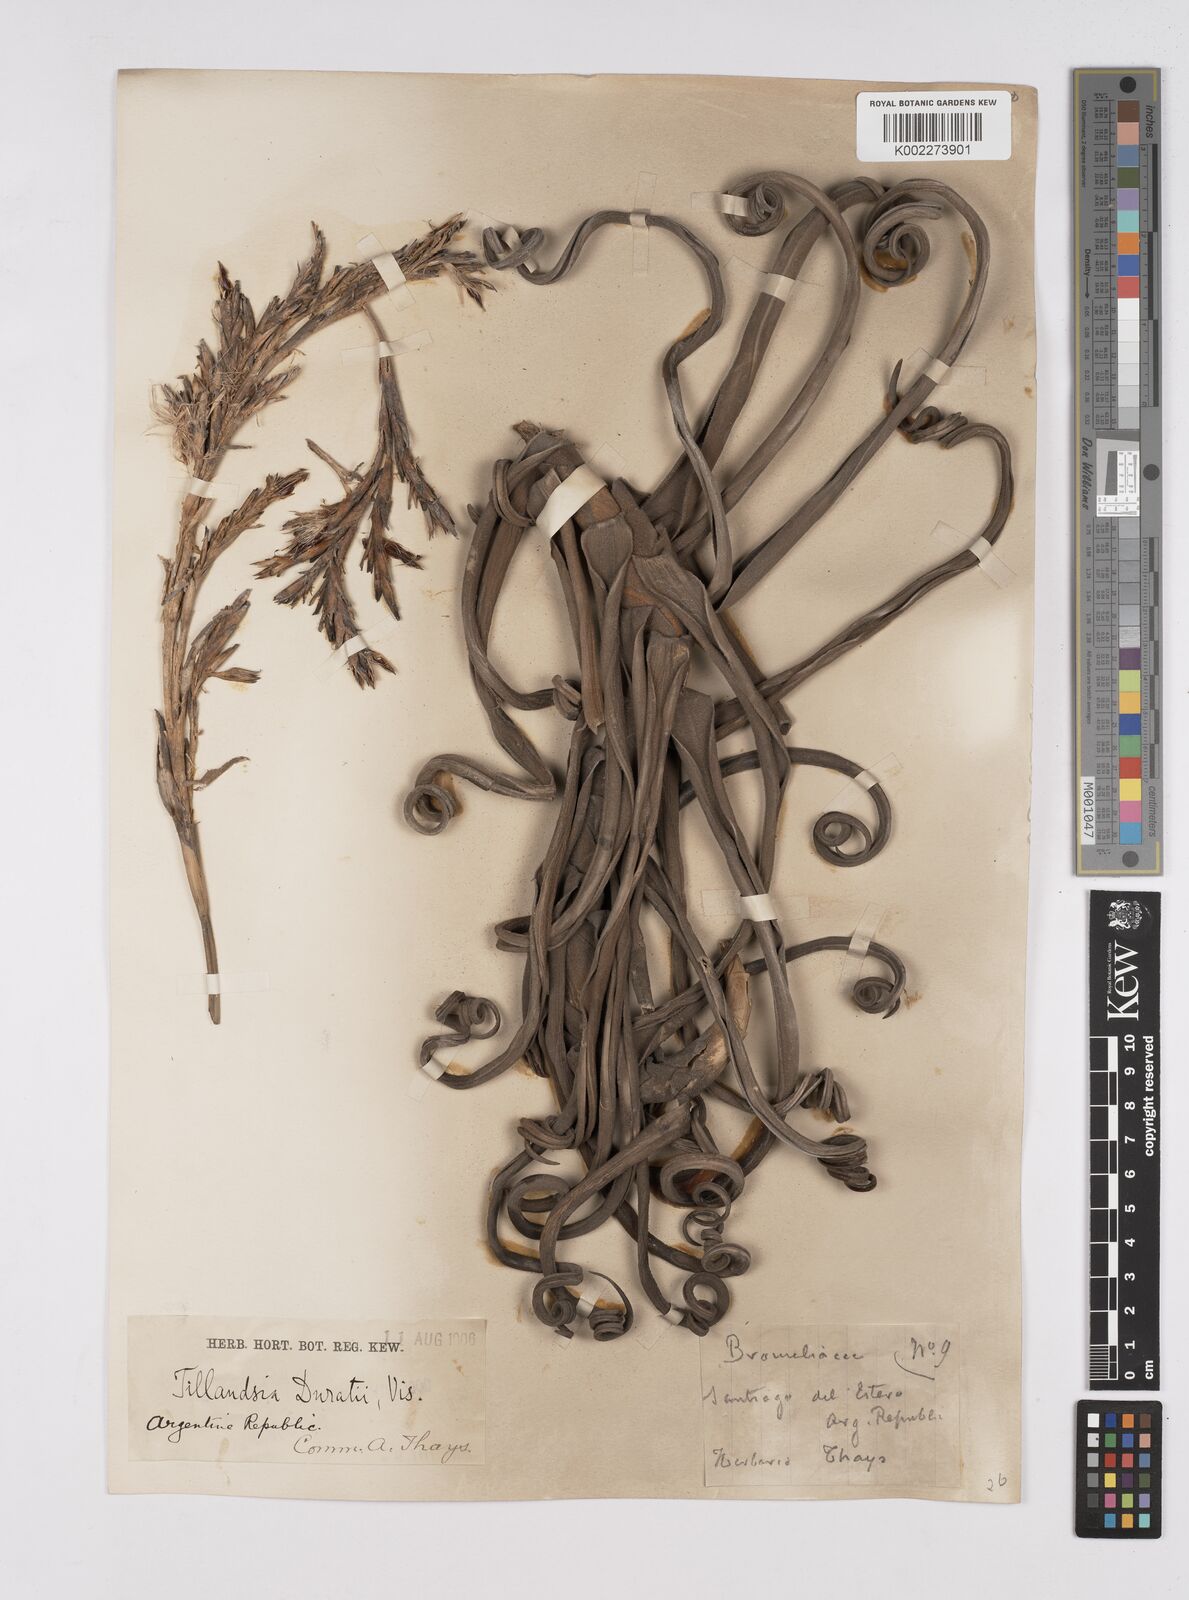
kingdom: Plantae
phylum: Tracheophyta
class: Liliopsida
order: Poales
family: Bromeliaceae
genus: Tillandsia
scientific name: Tillandsia duratii
